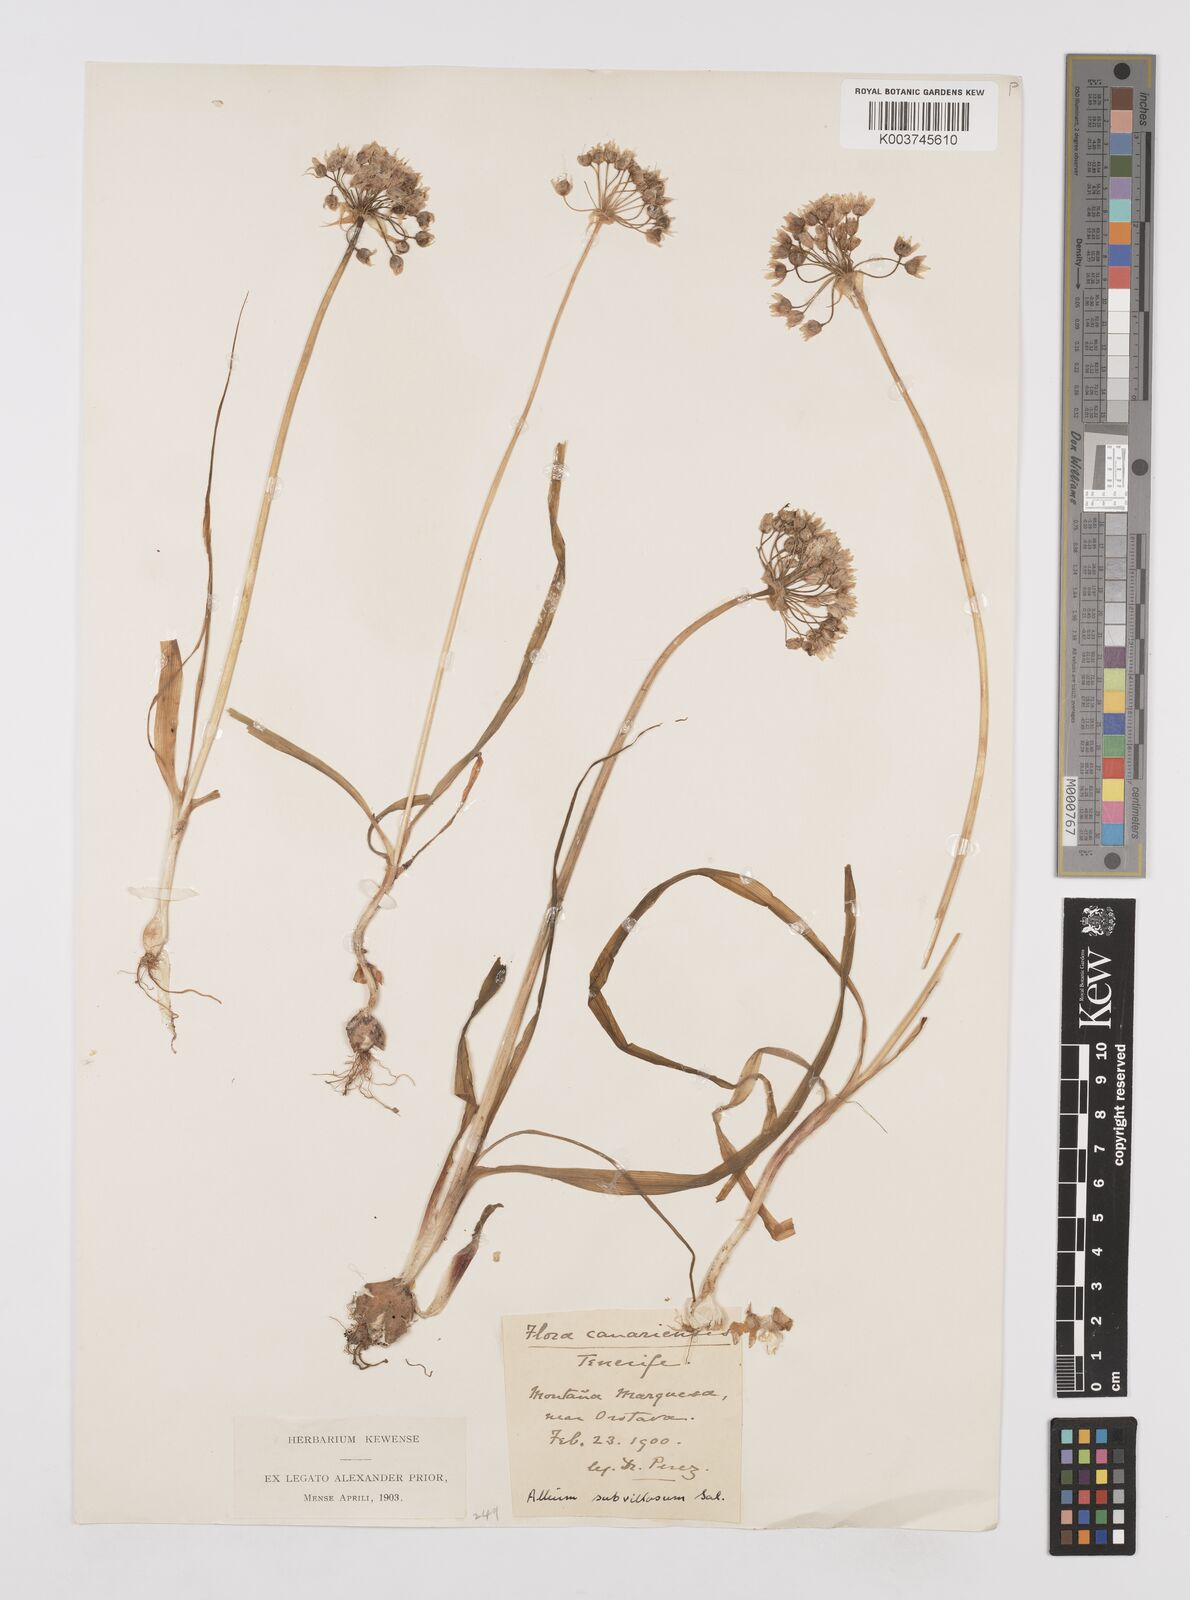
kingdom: Plantae
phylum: Tracheophyta
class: Liliopsida
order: Asparagales
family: Amaryllidaceae
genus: Allium
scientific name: Allium subvillosum
